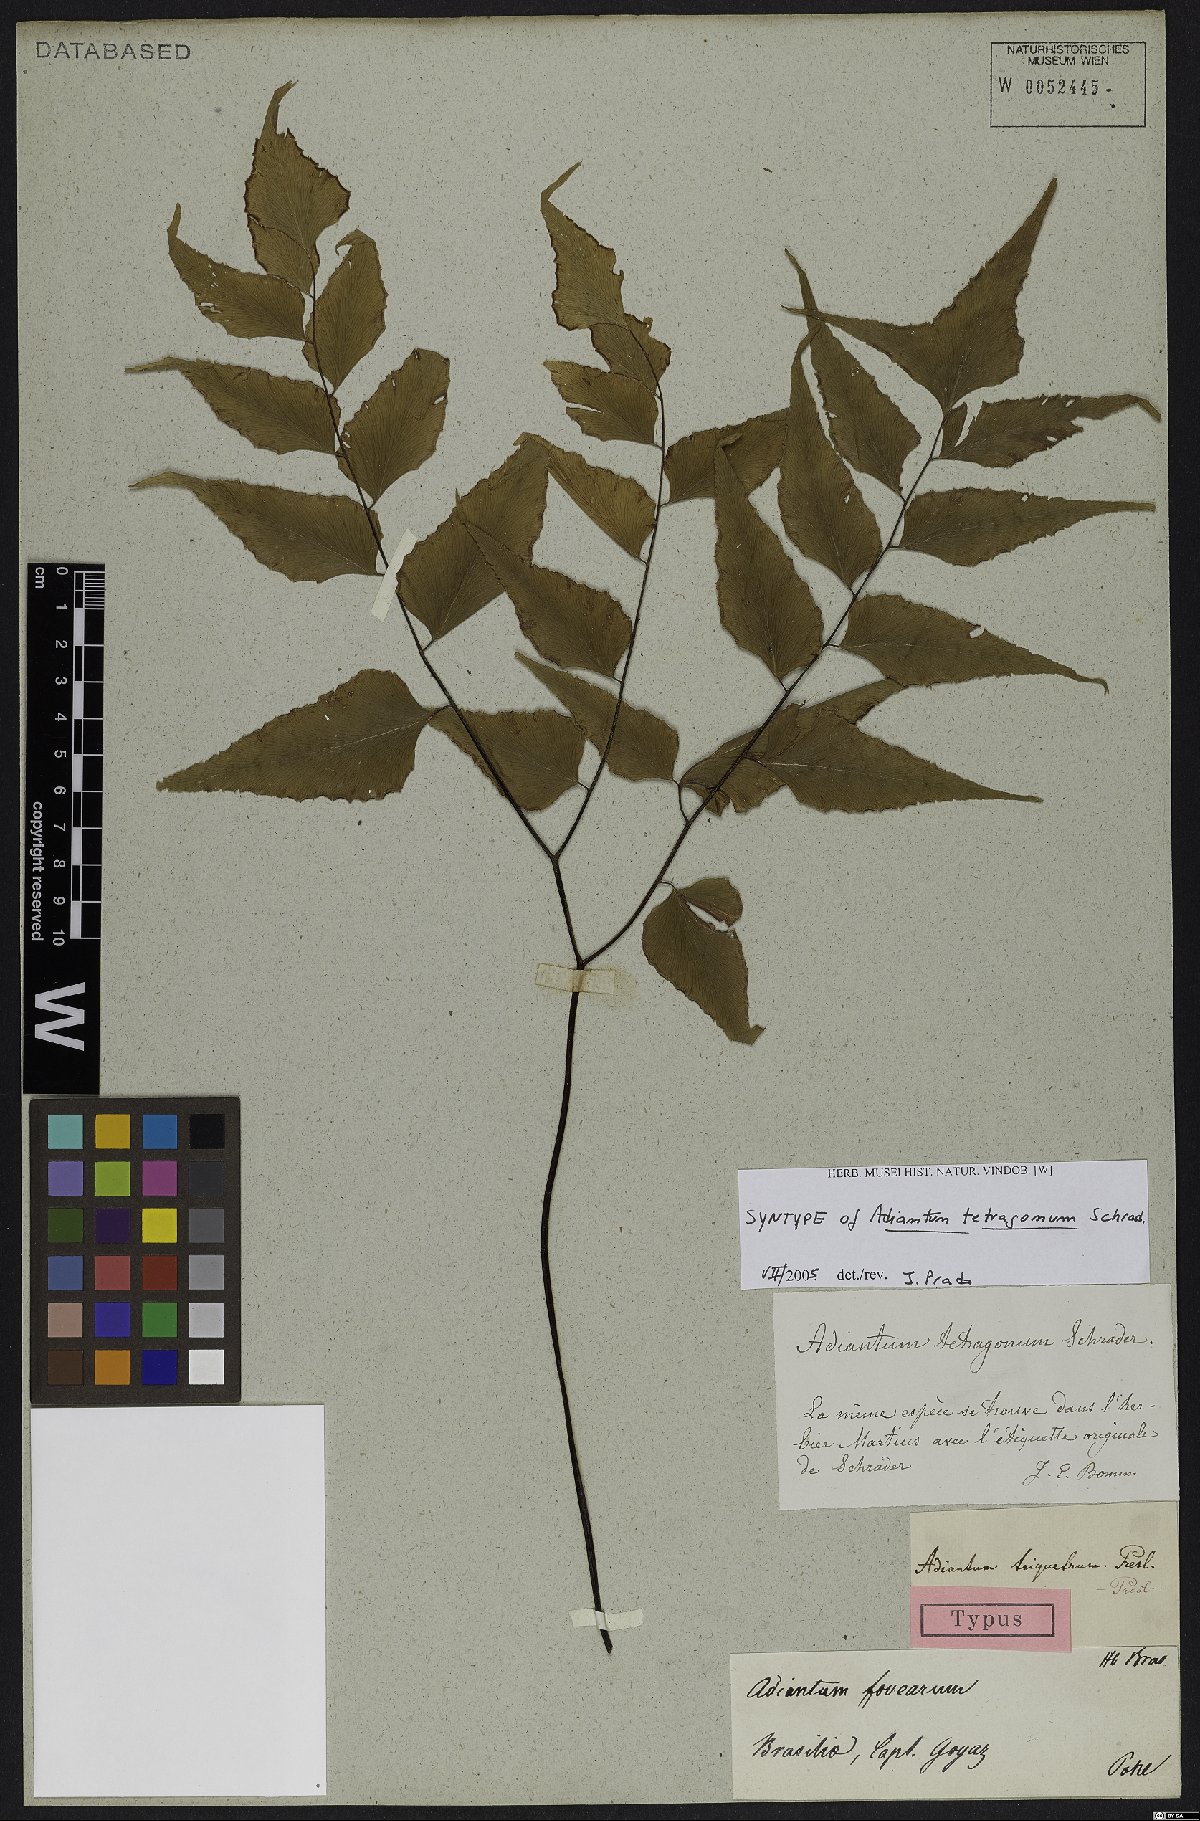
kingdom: Plantae
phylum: Tracheophyta
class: Polypodiopsida
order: Polypodiales
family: Pteridaceae
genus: Adiantum
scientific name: Adiantum tetragonum
